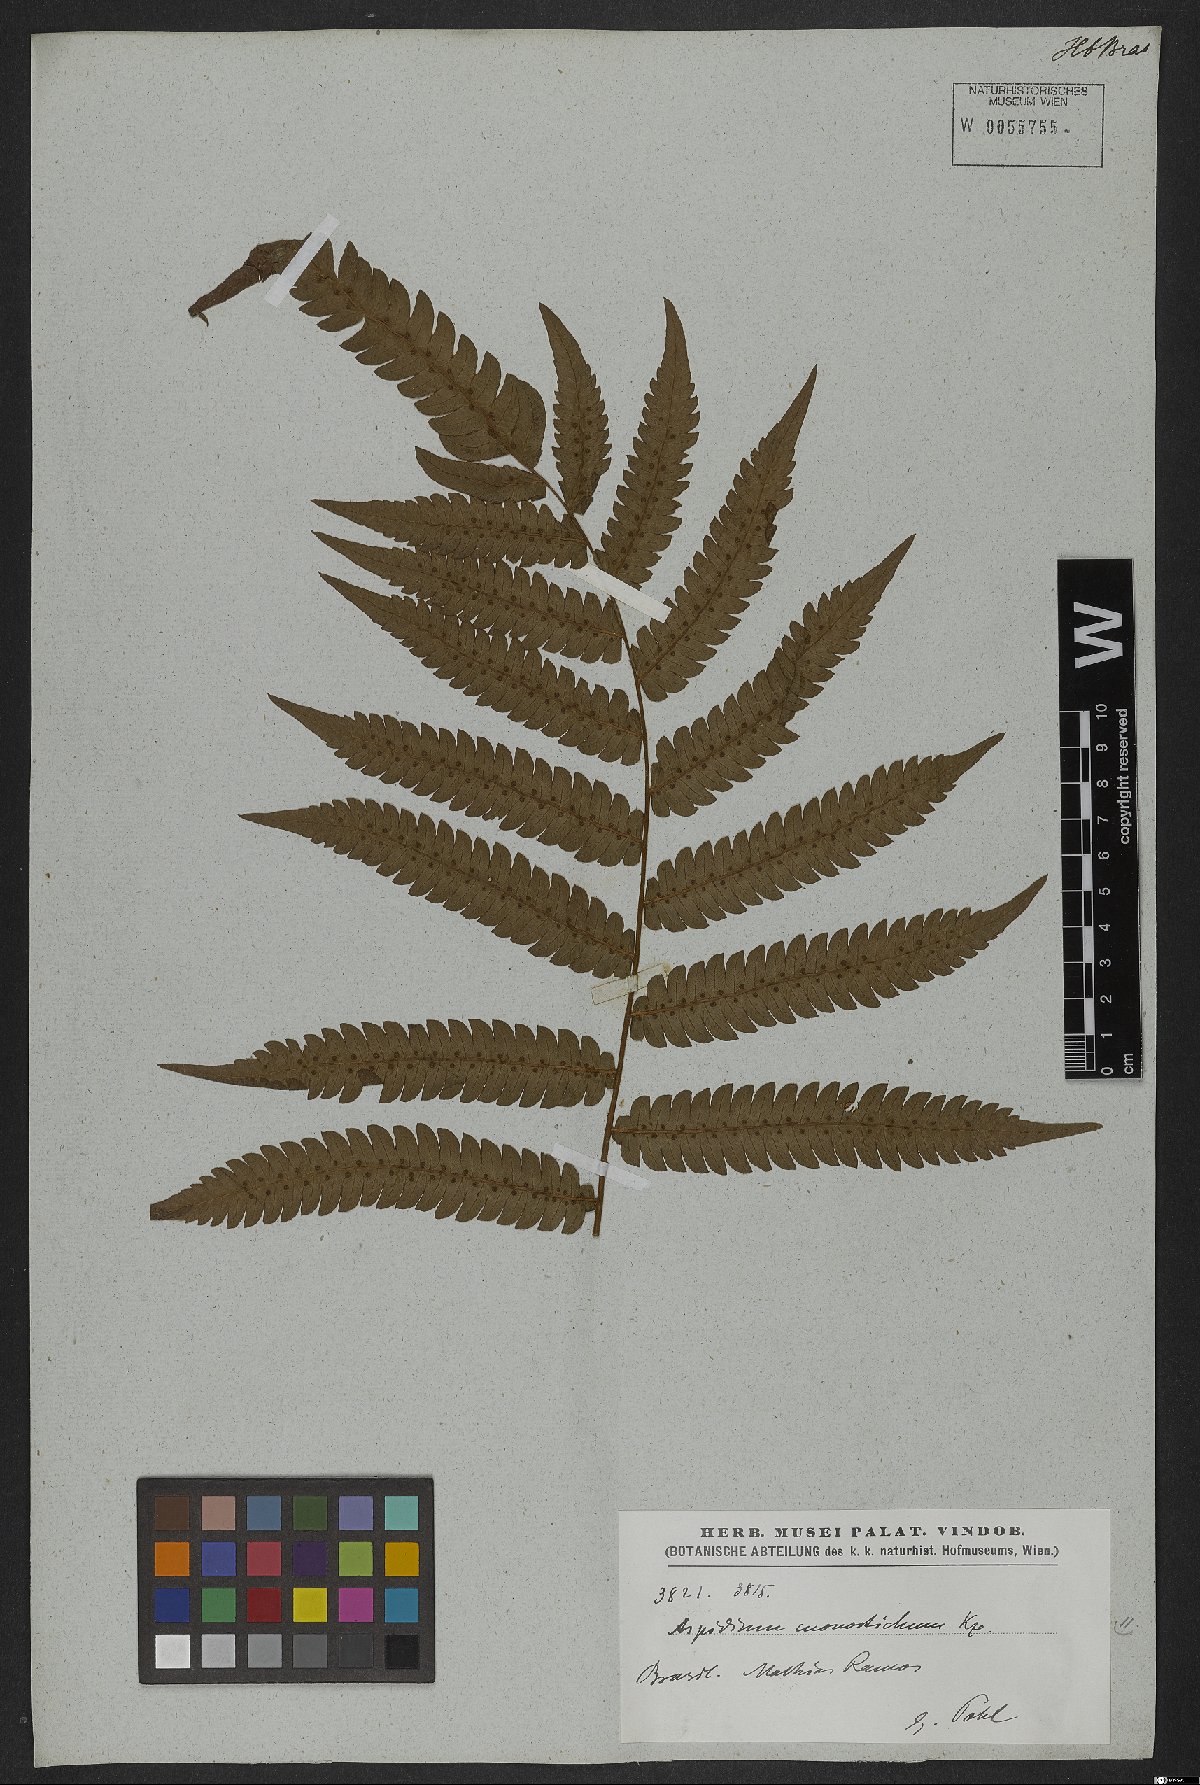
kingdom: Plantae
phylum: Tracheophyta
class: Polypodiopsida
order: Polypodiales
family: Thelypteridaceae
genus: Goniopteris
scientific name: Goniopteris tristis
